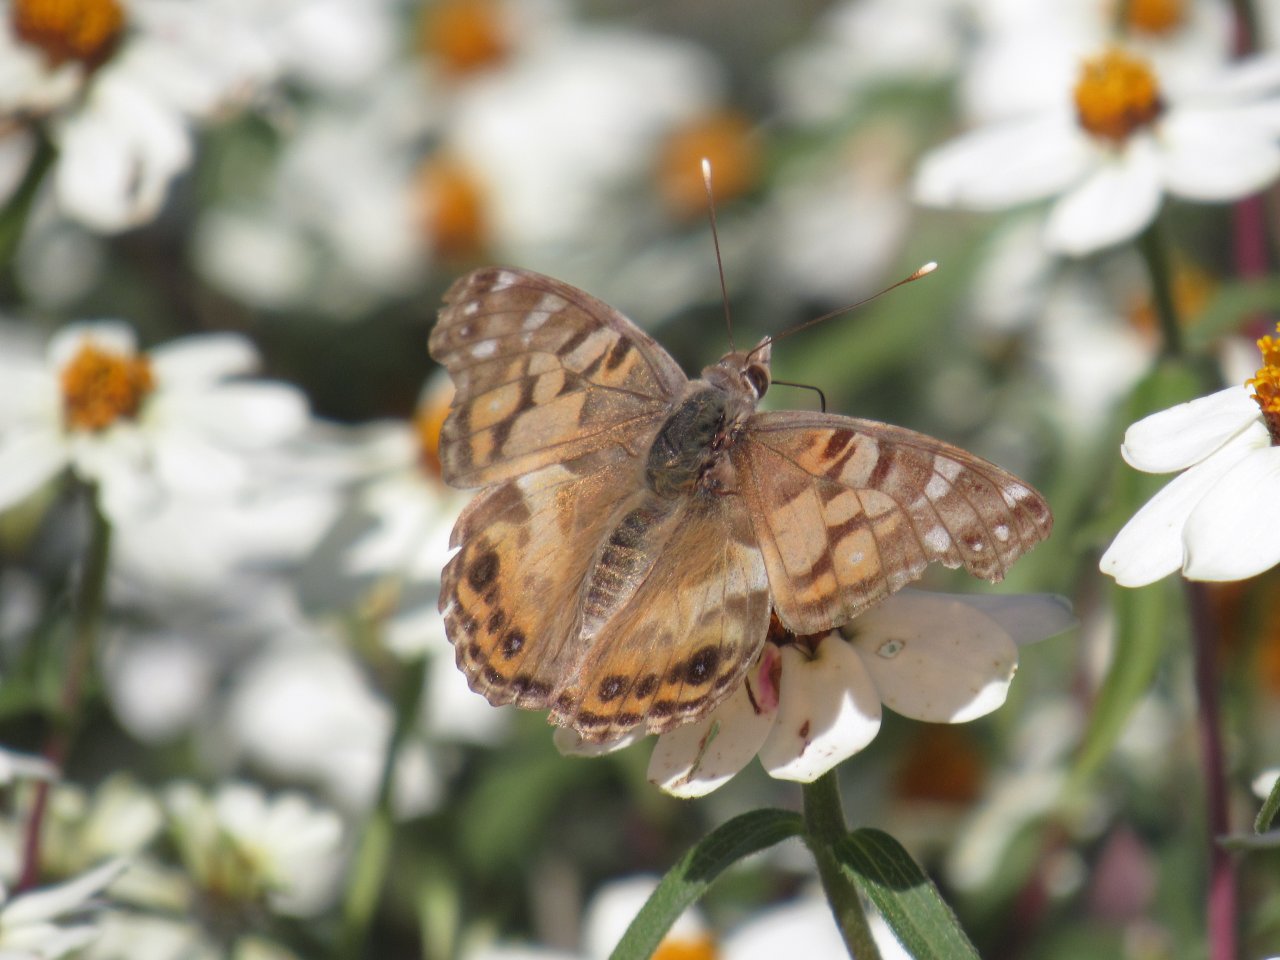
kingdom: Animalia
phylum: Arthropoda
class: Insecta
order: Lepidoptera
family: Nymphalidae
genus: Vanessa
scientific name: Vanessa virginiensis
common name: American Lady
